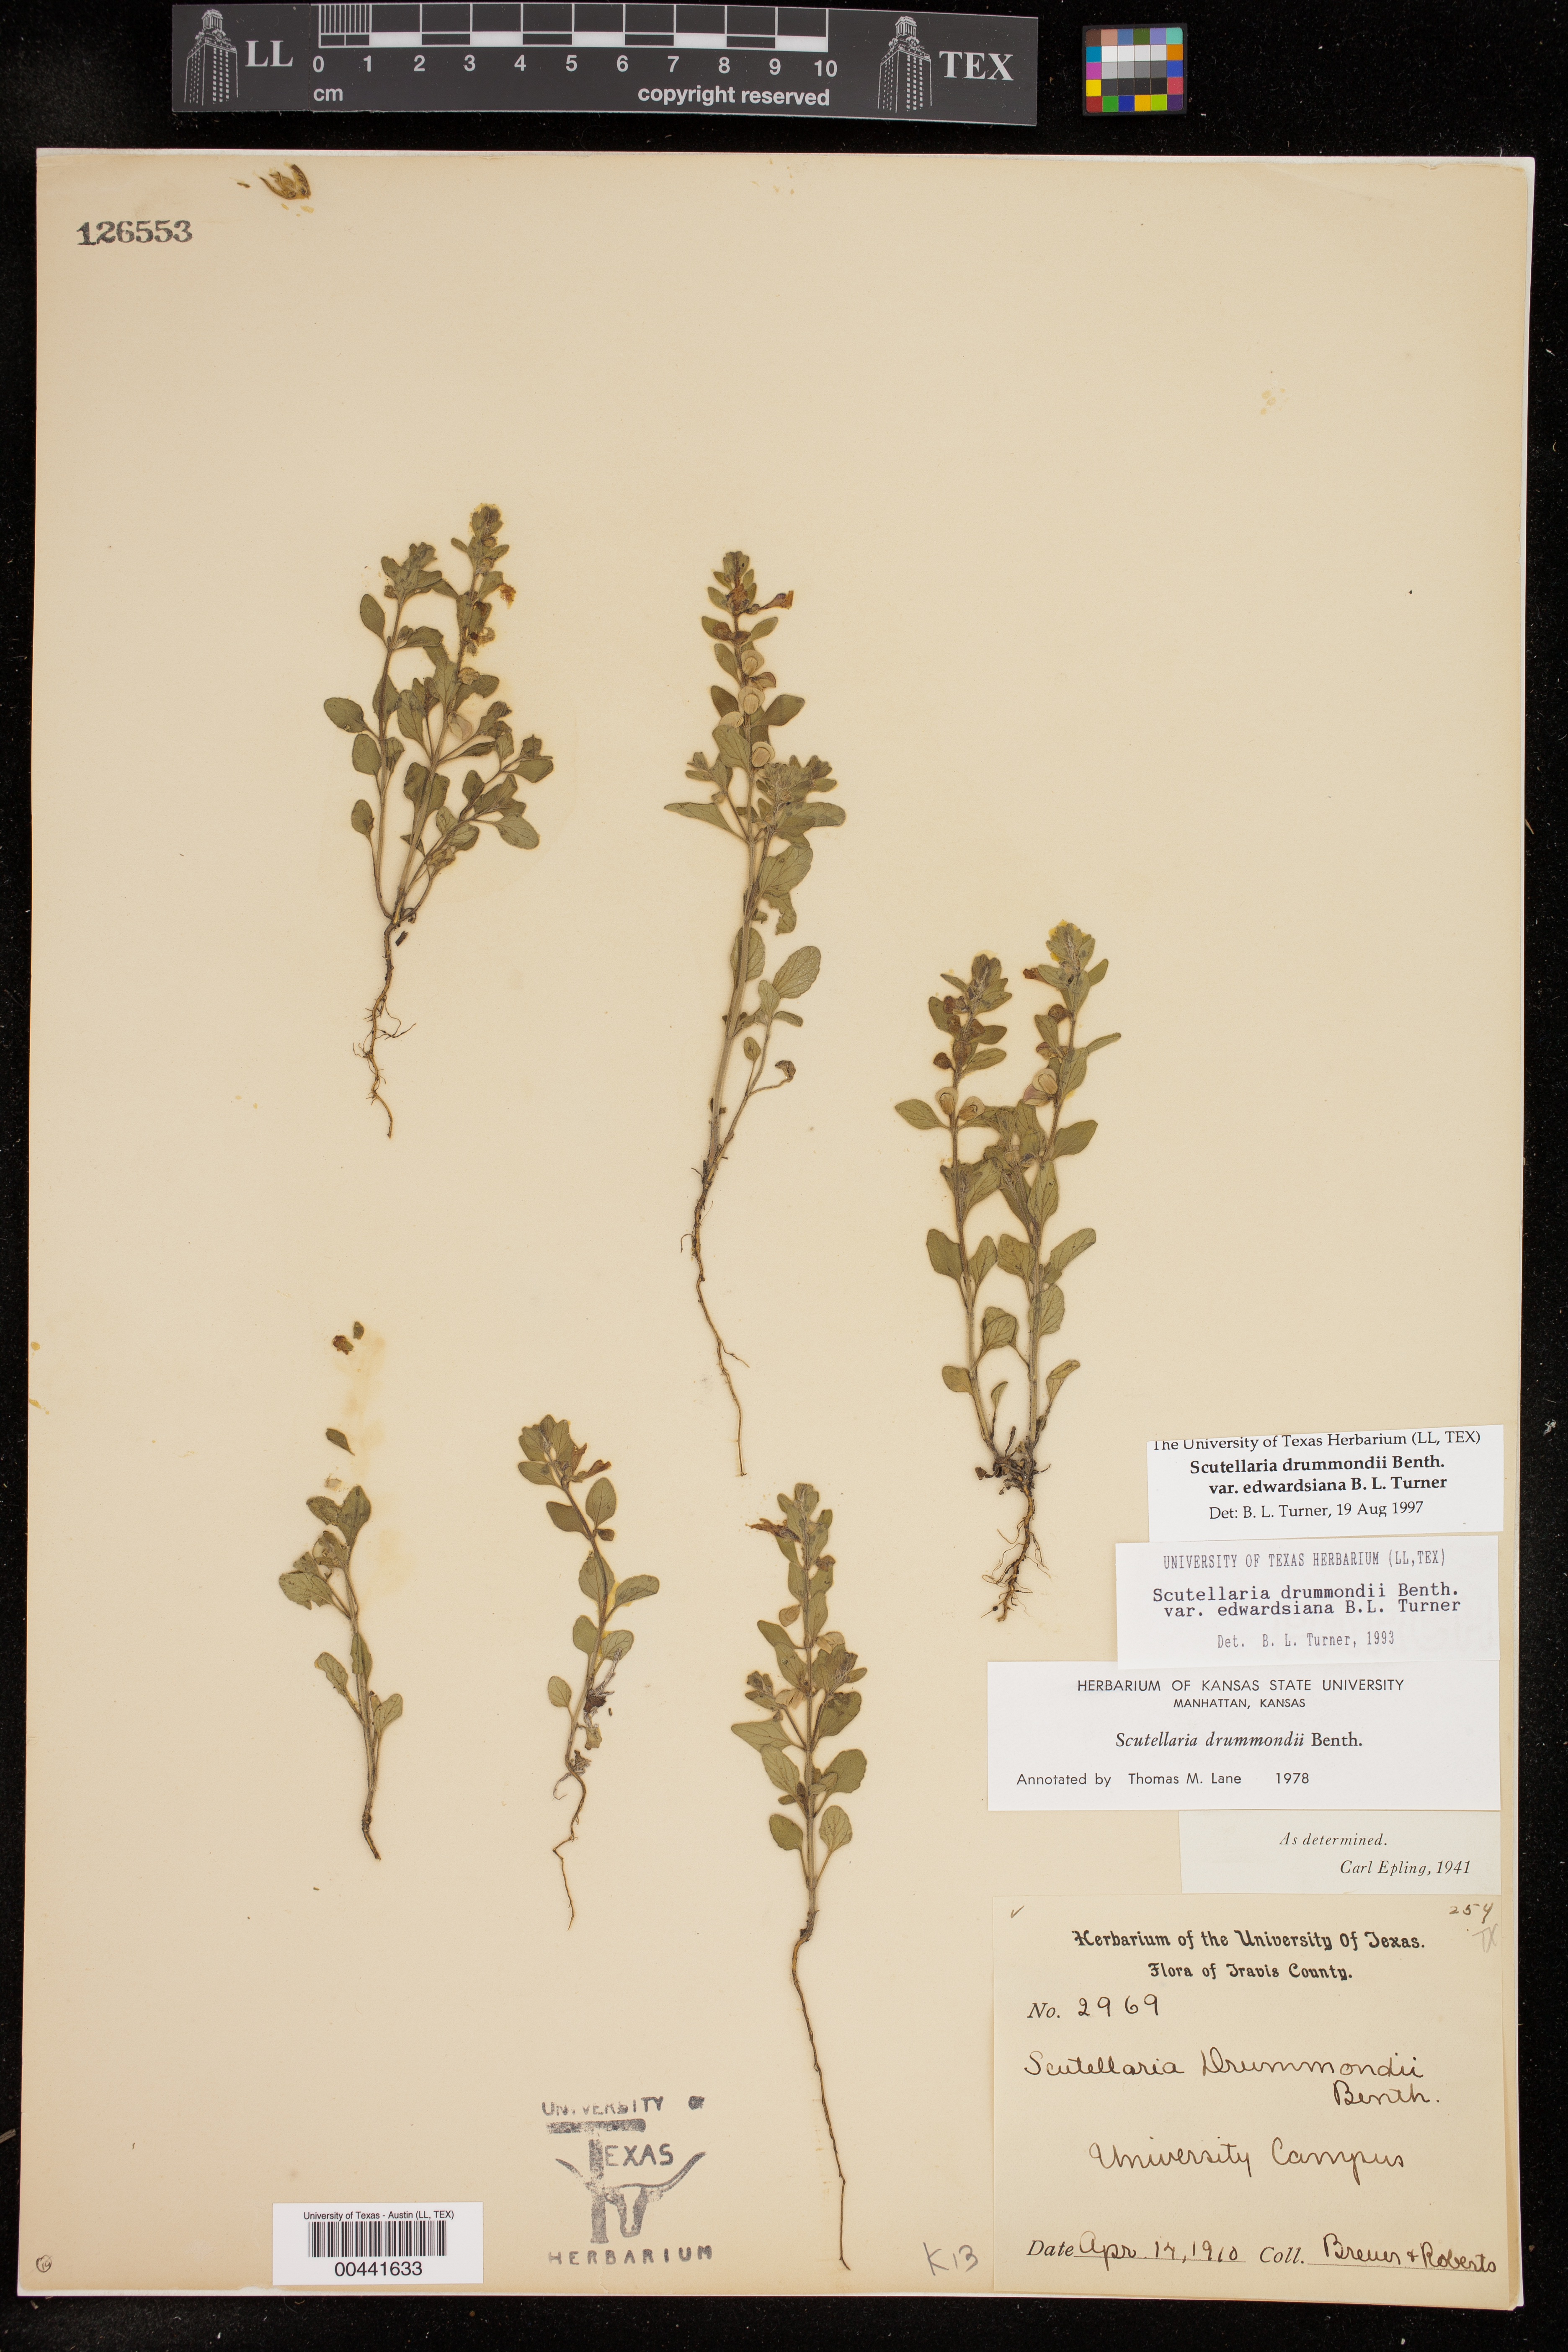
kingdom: Plantae
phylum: Tracheophyta
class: Magnoliopsida
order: Lamiales
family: Lamiaceae
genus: Scutellaria
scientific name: Scutellaria drummondii
